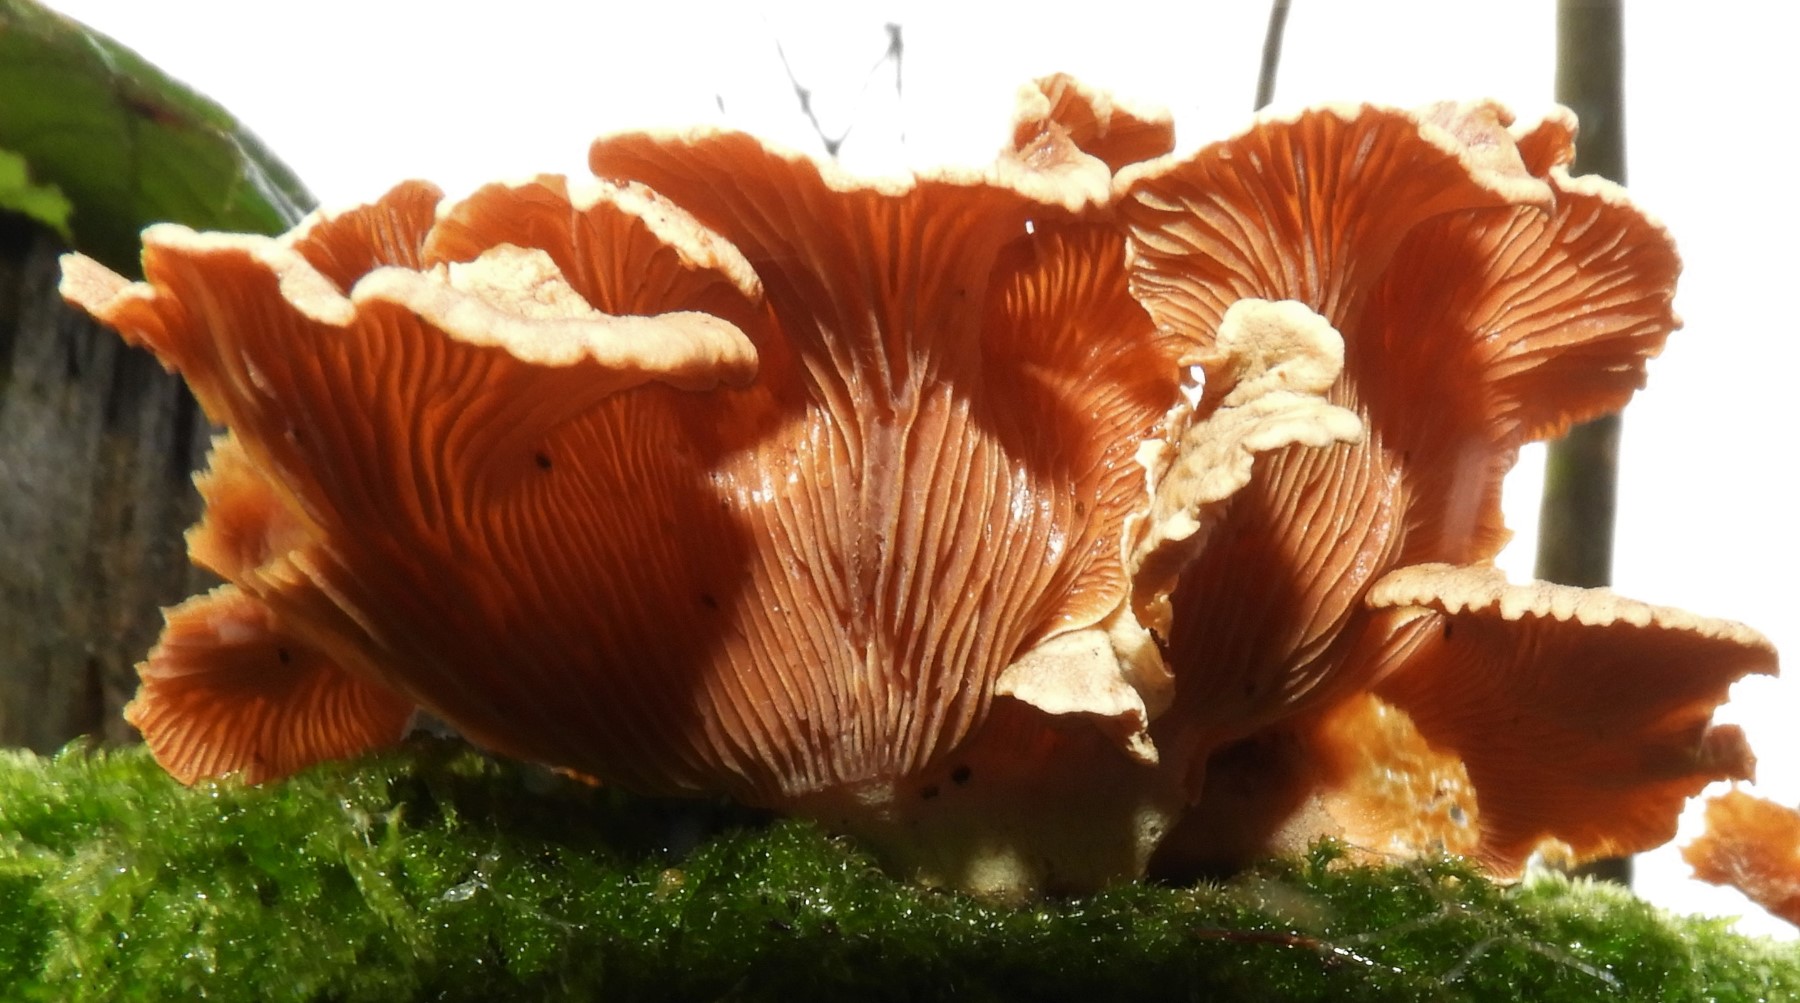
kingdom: Fungi
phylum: Basidiomycota
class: Agaricomycetes
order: Agaricales
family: Mycenaceae
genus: Panellus
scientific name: Panellus stipticus
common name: kliddet epaulethat
